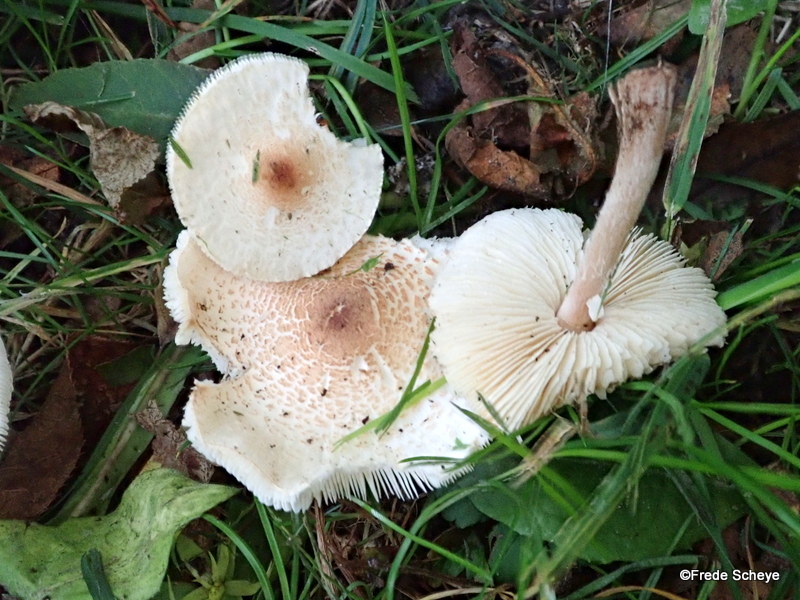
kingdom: Fungi
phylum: Basidiomycota
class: Agaricomycetes
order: Agaricales
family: Agaricaceae
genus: Lepiota
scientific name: Lepiota cristata
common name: stinkende parasolhat
